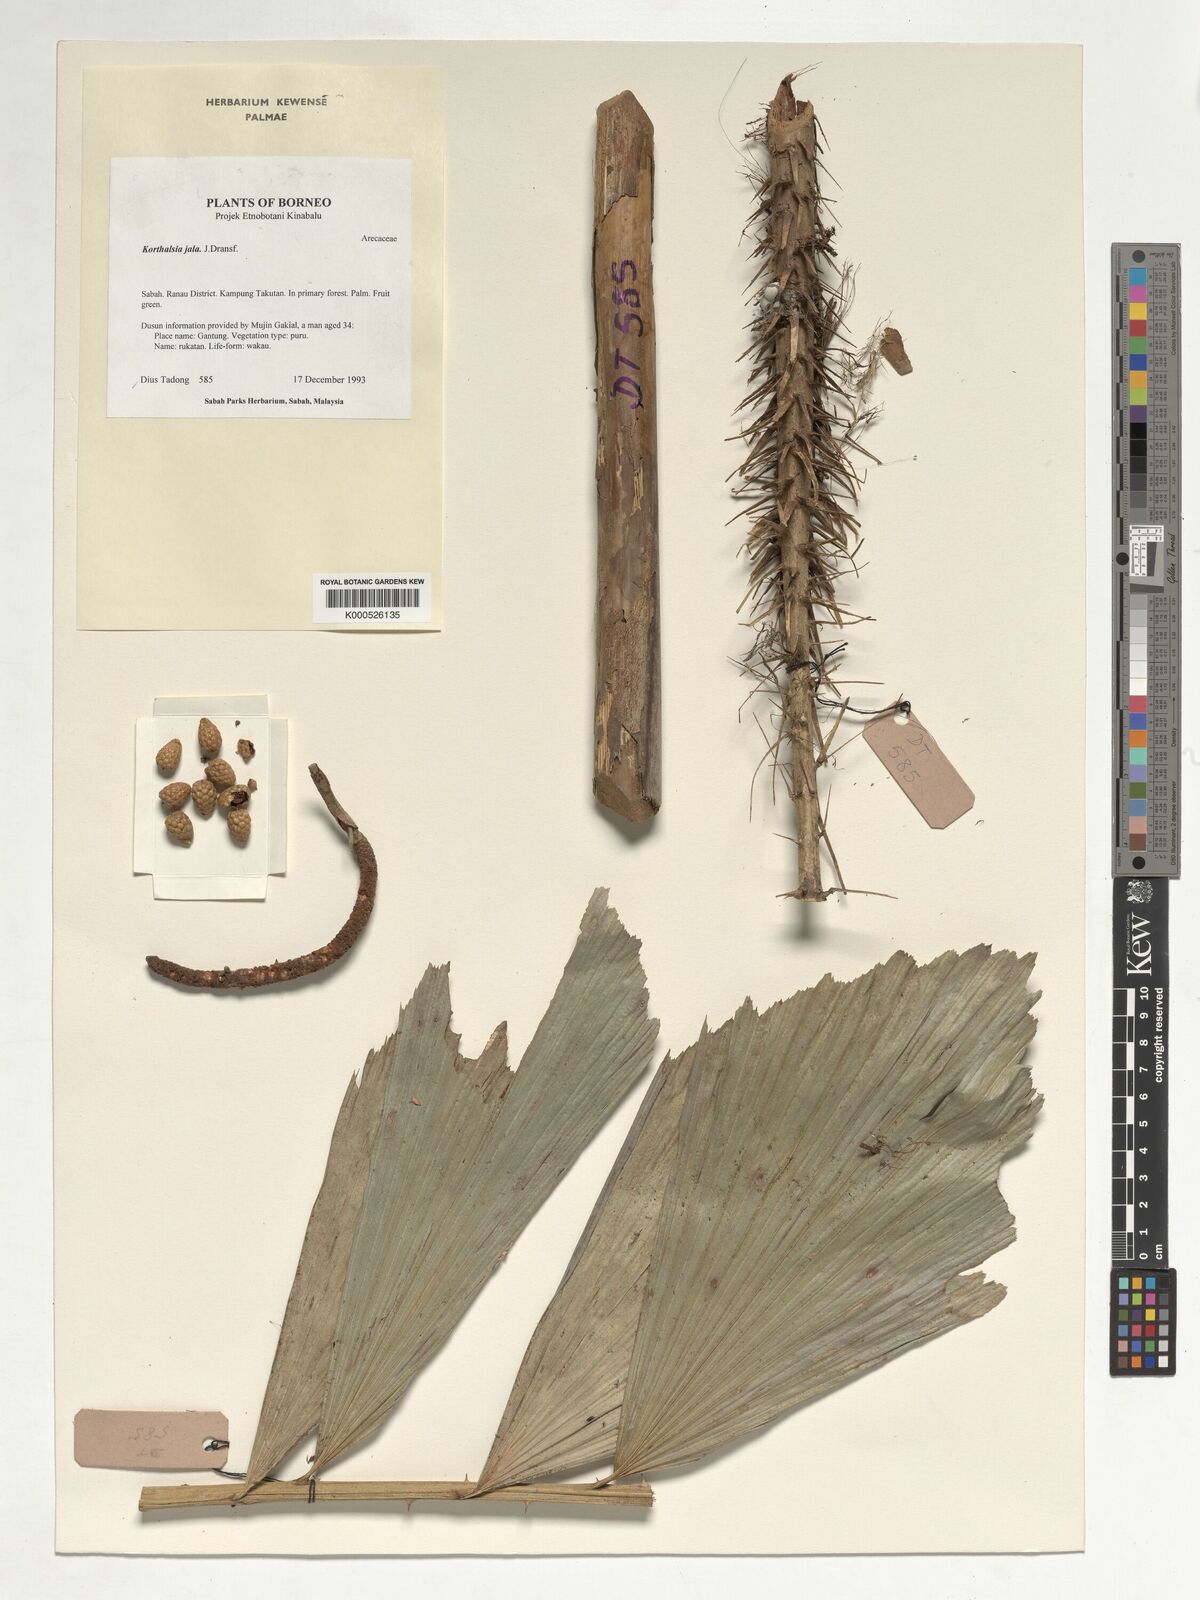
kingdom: Plantae
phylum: Tracheophyta
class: Liliopsida
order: Arecales
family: Arecaceae
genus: Korthalsia
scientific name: Korthalsia jala
